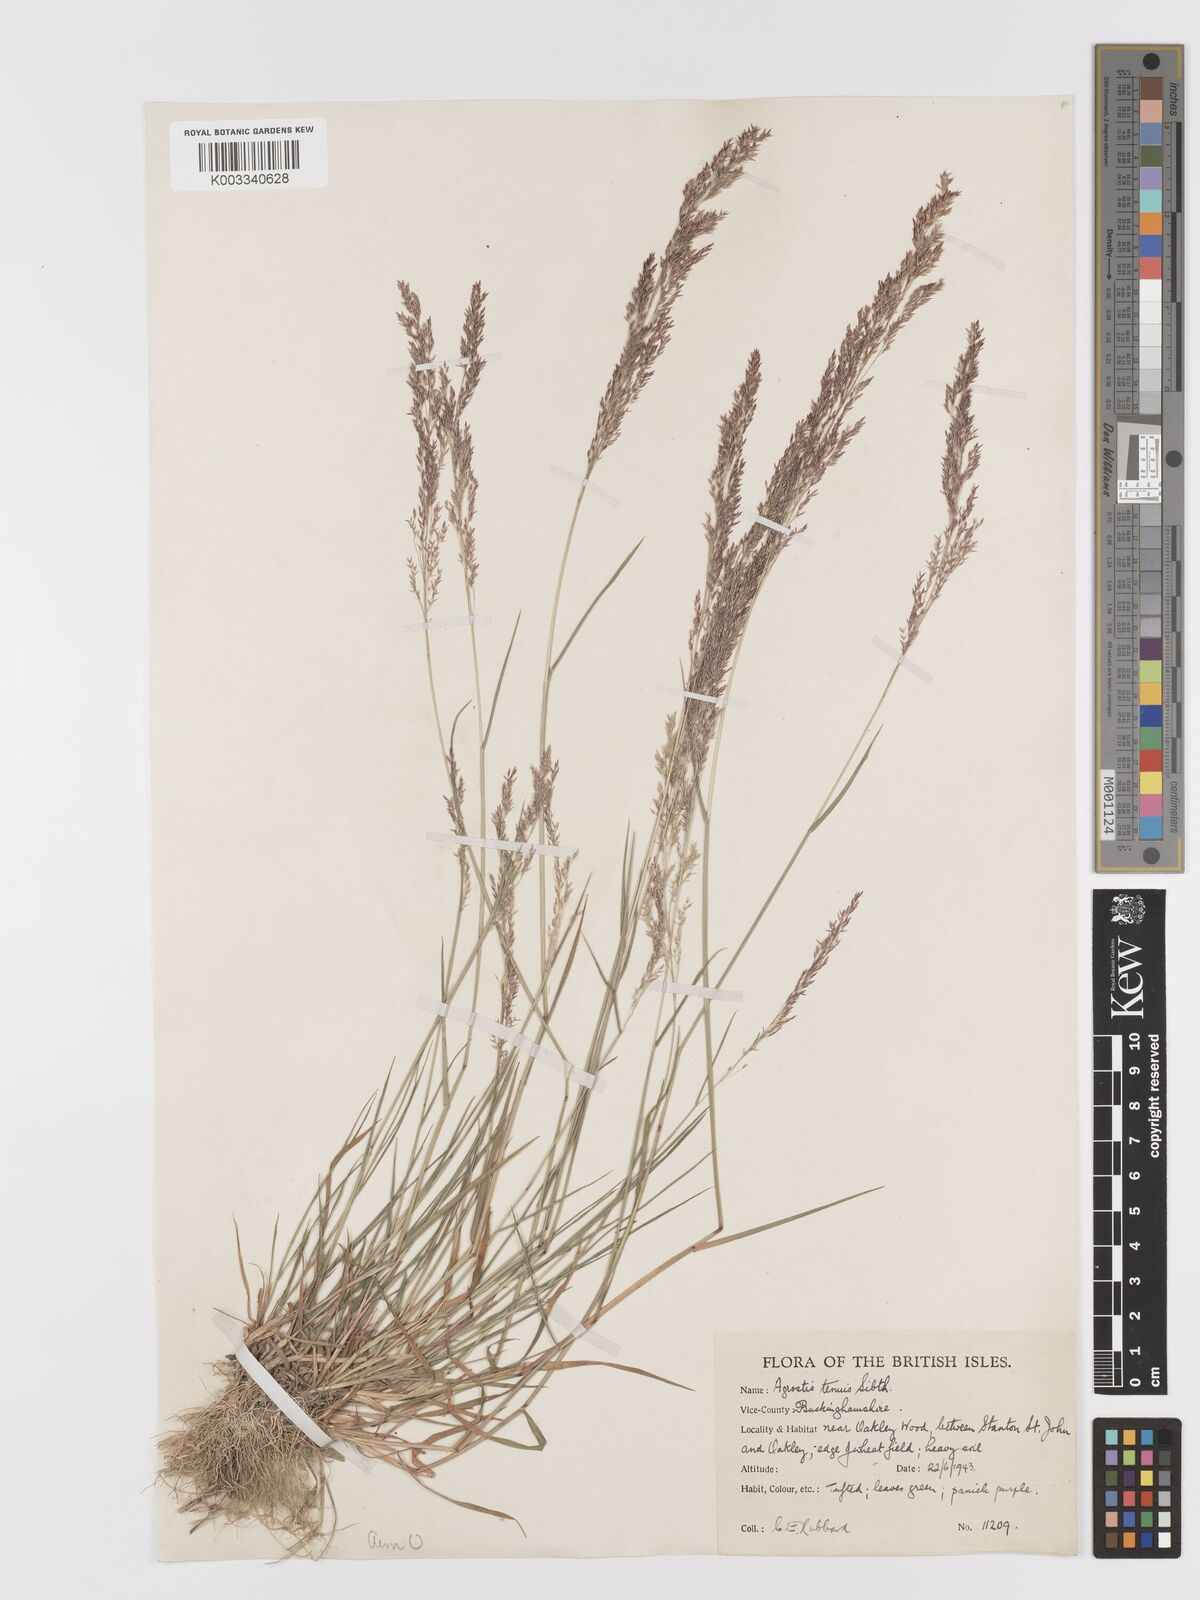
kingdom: Plantae
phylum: Tracheophyta
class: Liliopsida
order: Poales
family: Poaceae
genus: Agrostis
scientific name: Agrostis capillaris
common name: Colonial bentgrass
